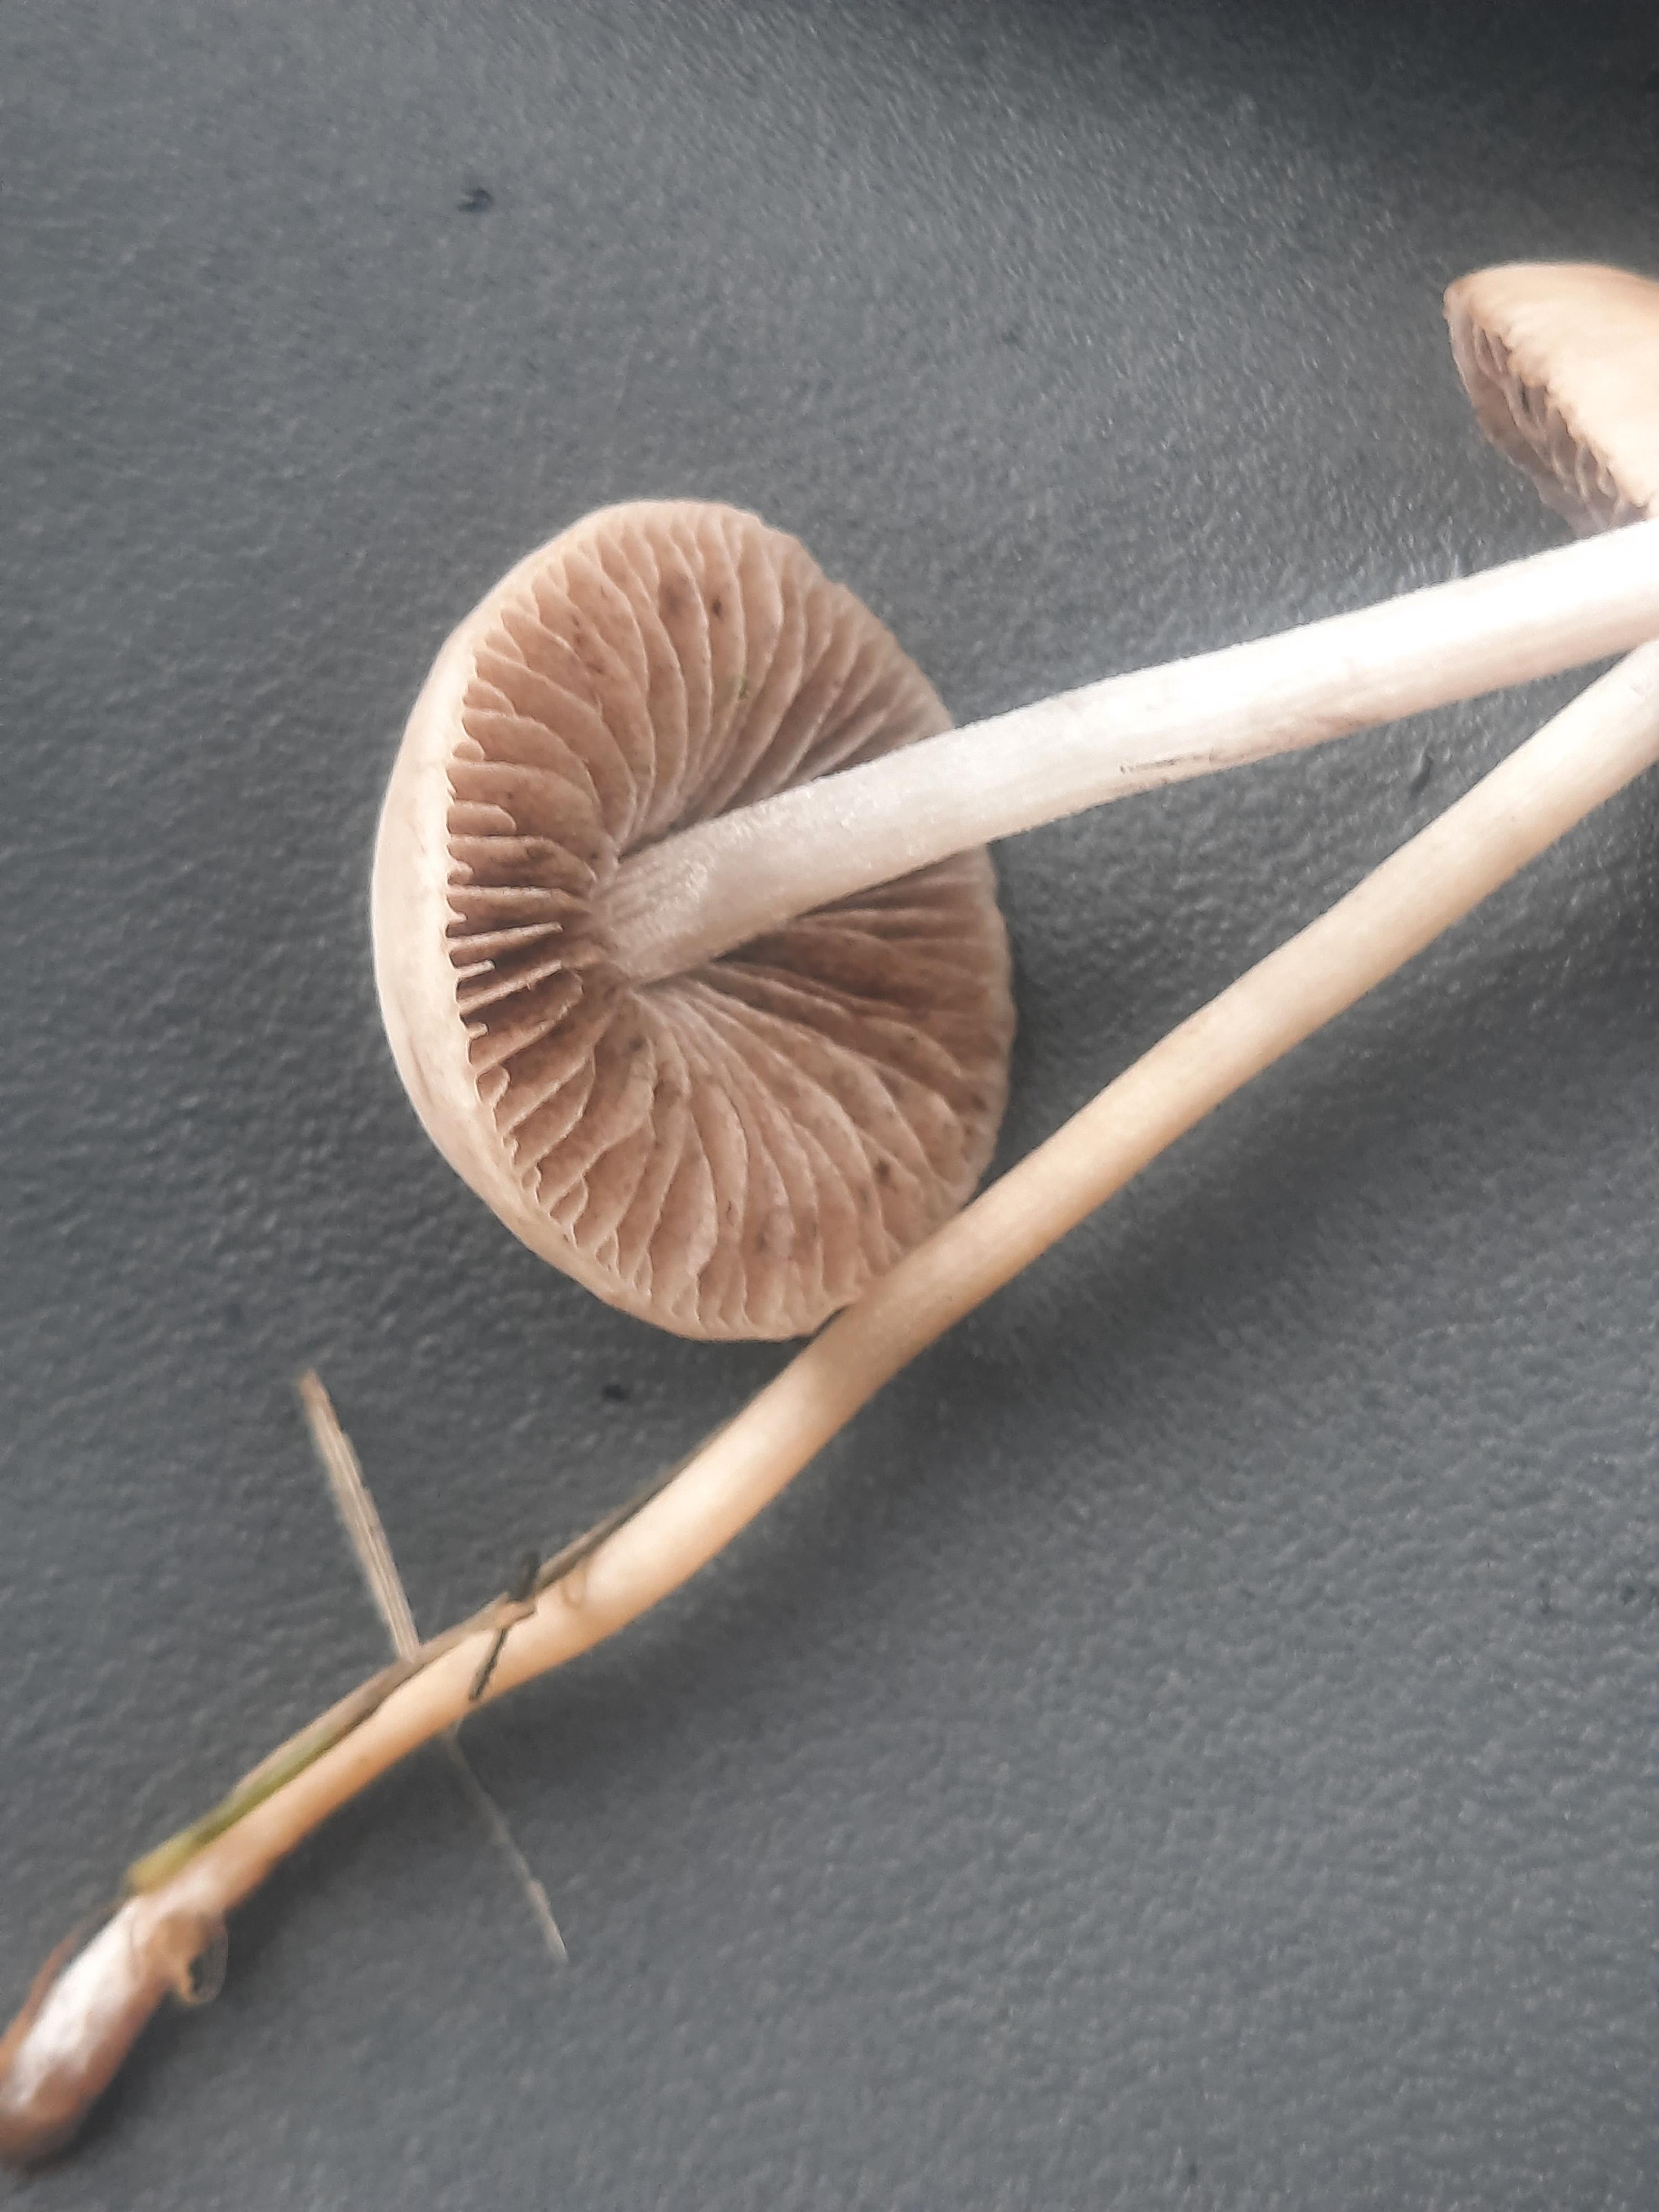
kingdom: Fungi
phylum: Basidiomycota
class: Agaricomycetes
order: Agaricales
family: Bolbitiaceae
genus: Panaeolina
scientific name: Panaeolina foenisecii
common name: høslætsvamp
